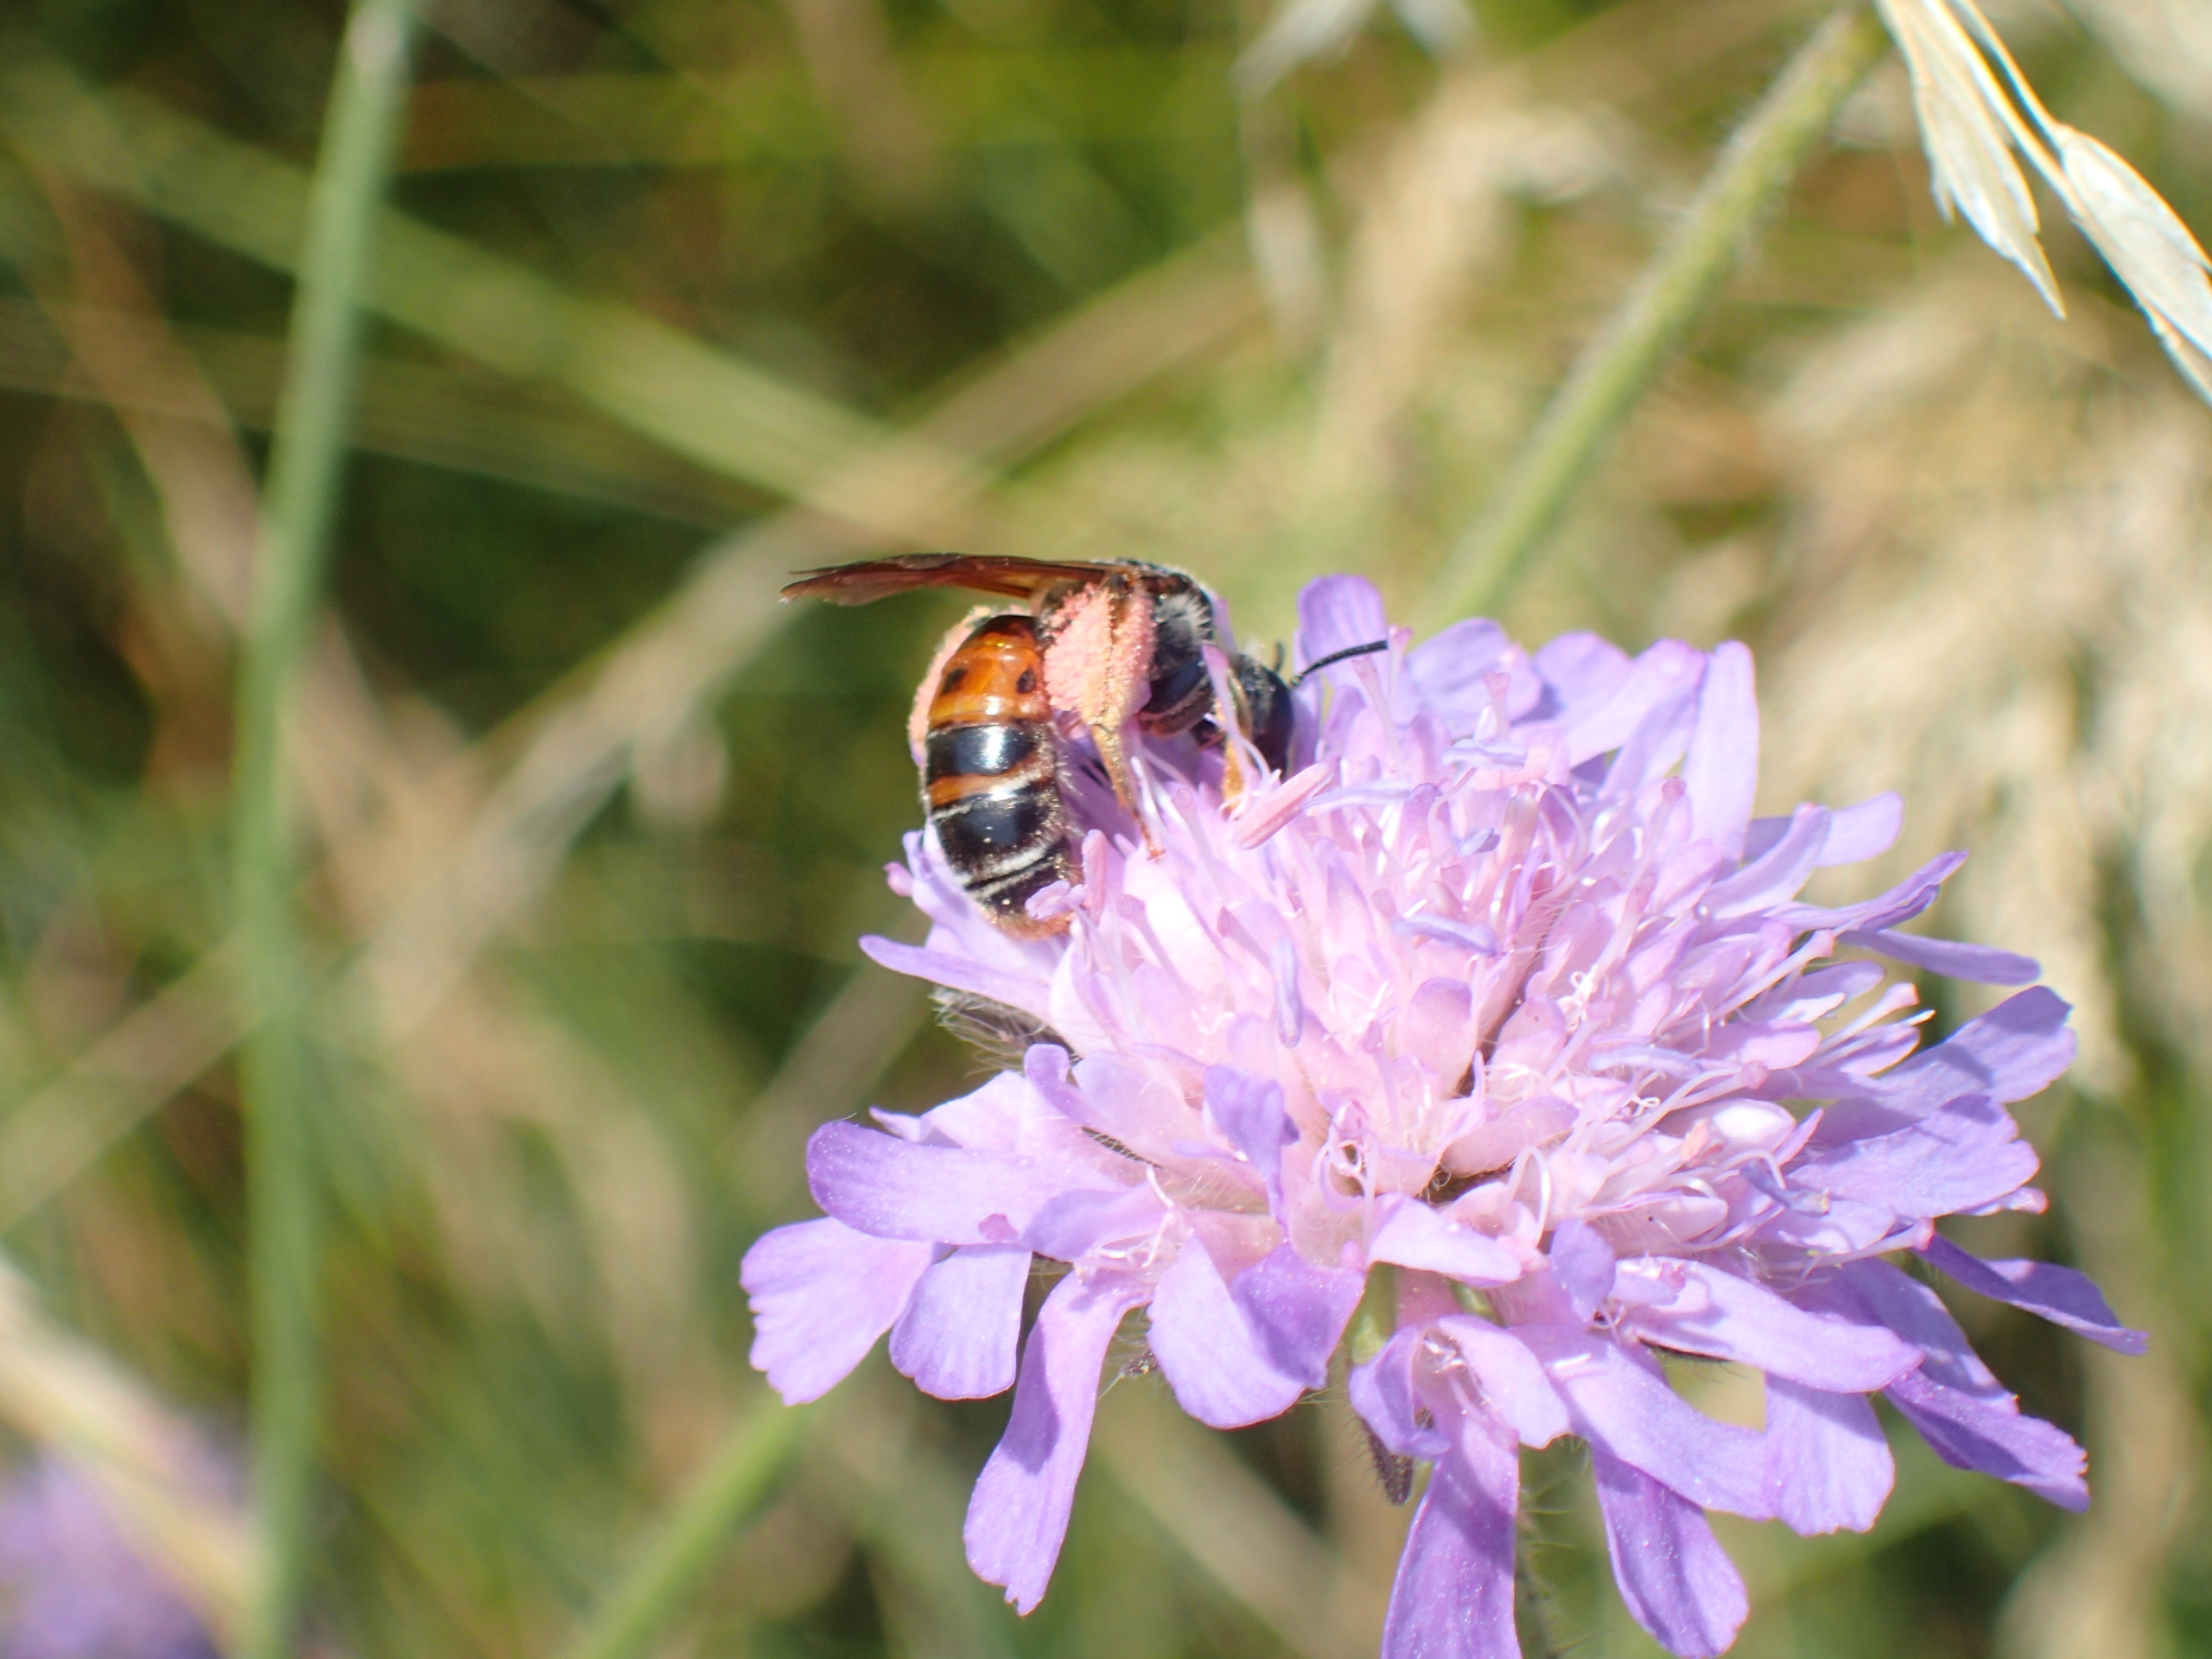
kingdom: Animalia
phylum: Arthropoda
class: Insecta
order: Hymenoptera
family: Andrenidae
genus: Andrena
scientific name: Andrena hattorfiana
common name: Blåhatjordbi
